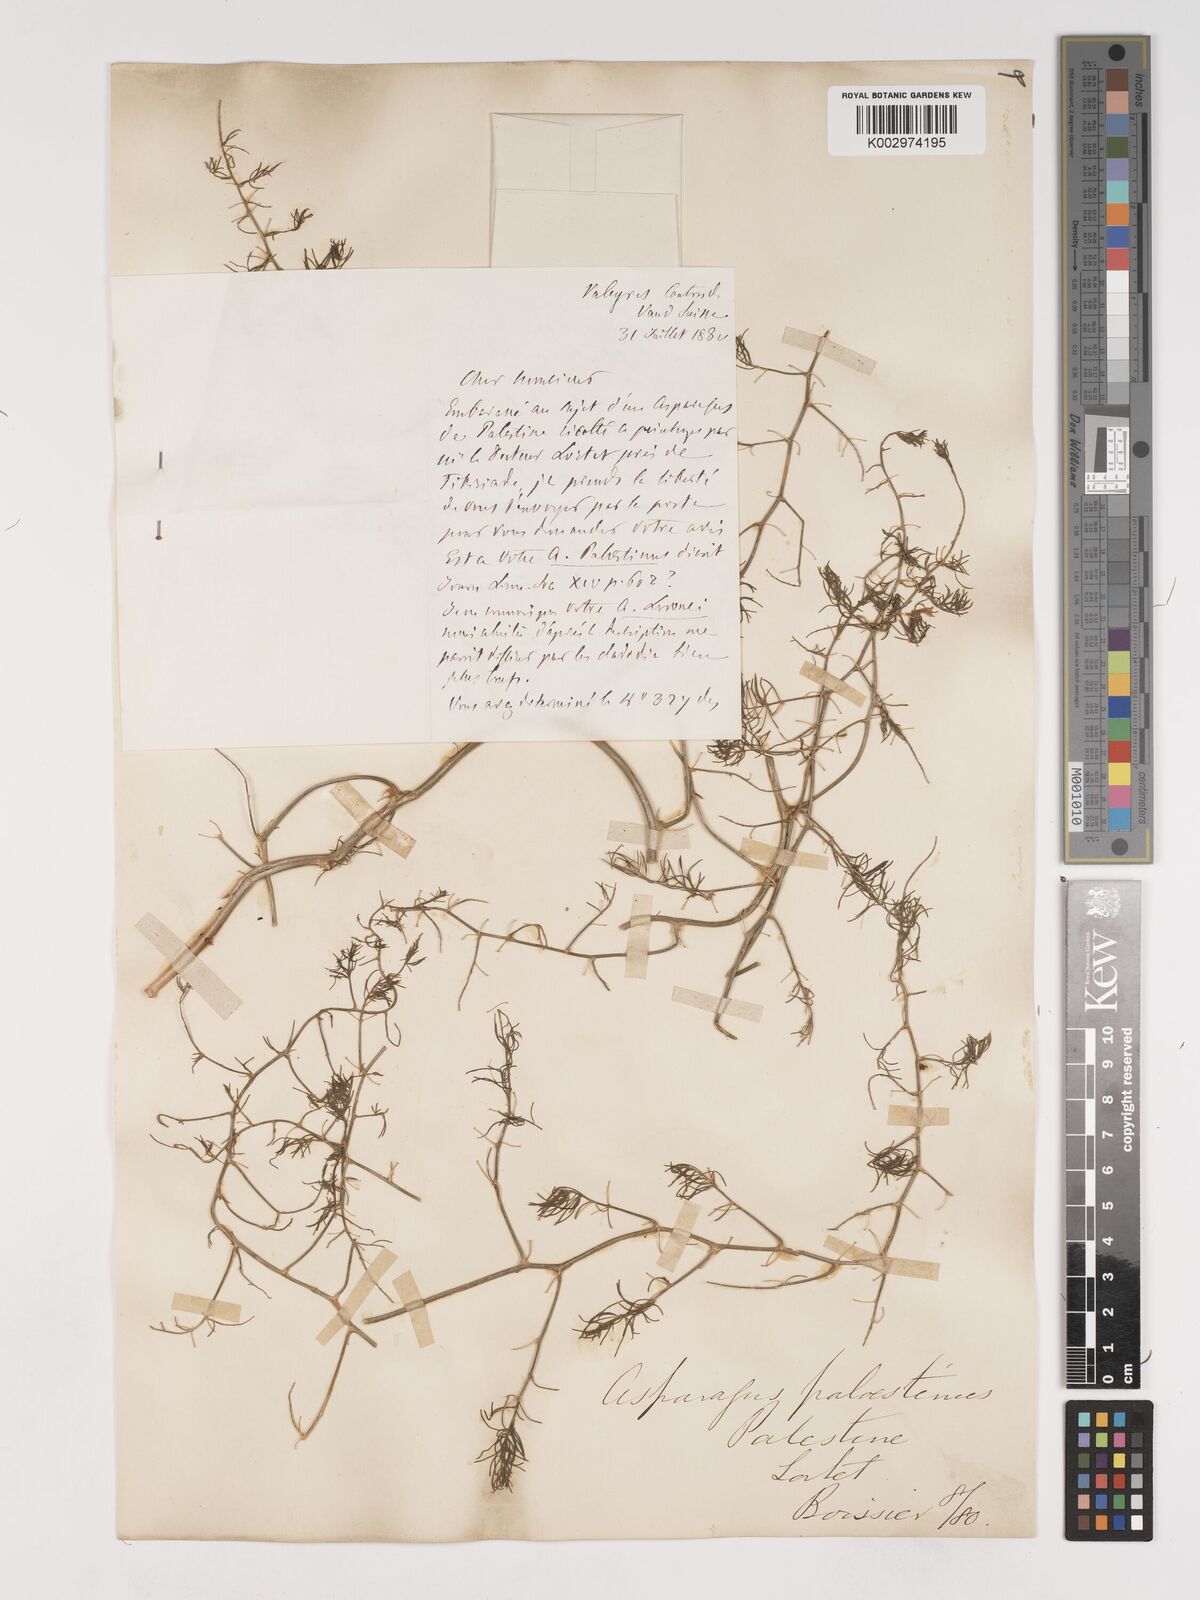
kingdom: Plantae
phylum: Tracheophyta
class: Liliopsida
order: Asparagales
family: Asparagaceae
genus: Asparagus
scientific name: Asparagus palaestinus
